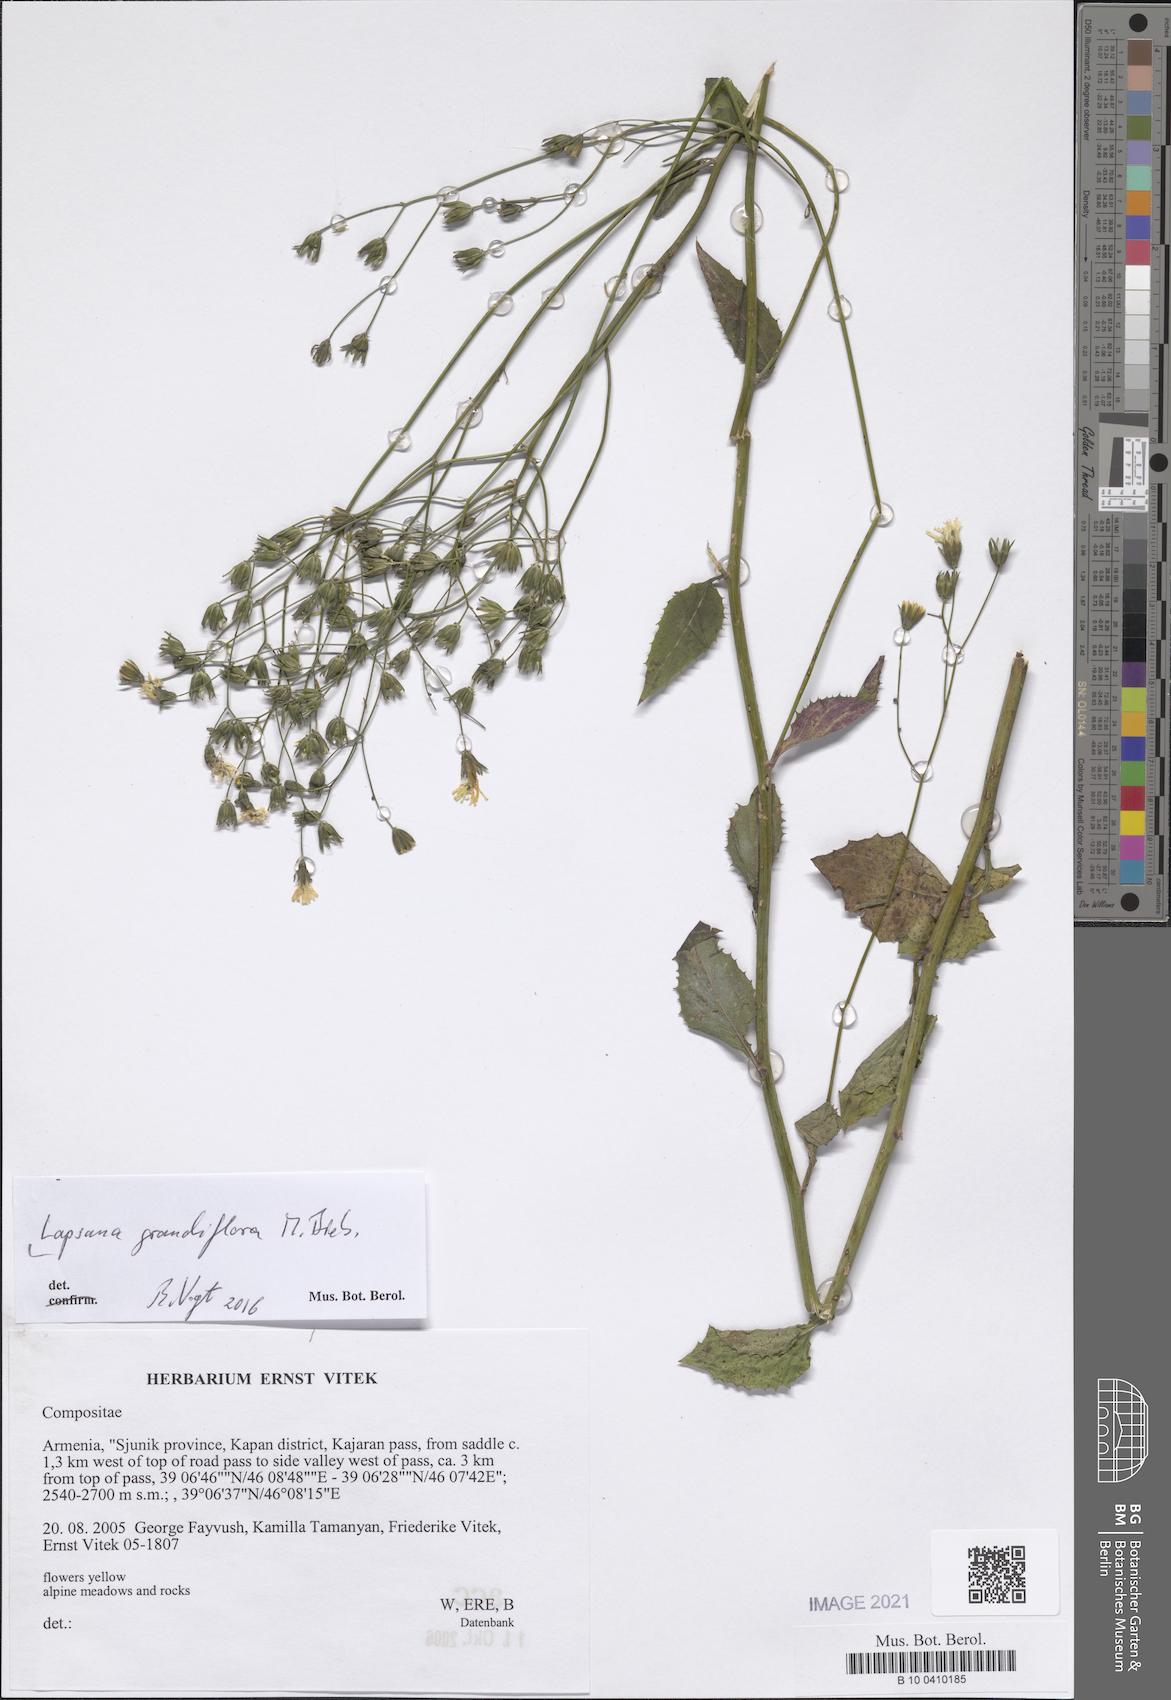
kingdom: Plantae
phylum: Tracheophyta
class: Magnoliopsida
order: Asterales
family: Asteraceae
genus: Lapsana
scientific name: Lapsana communis
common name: Nipplewort
